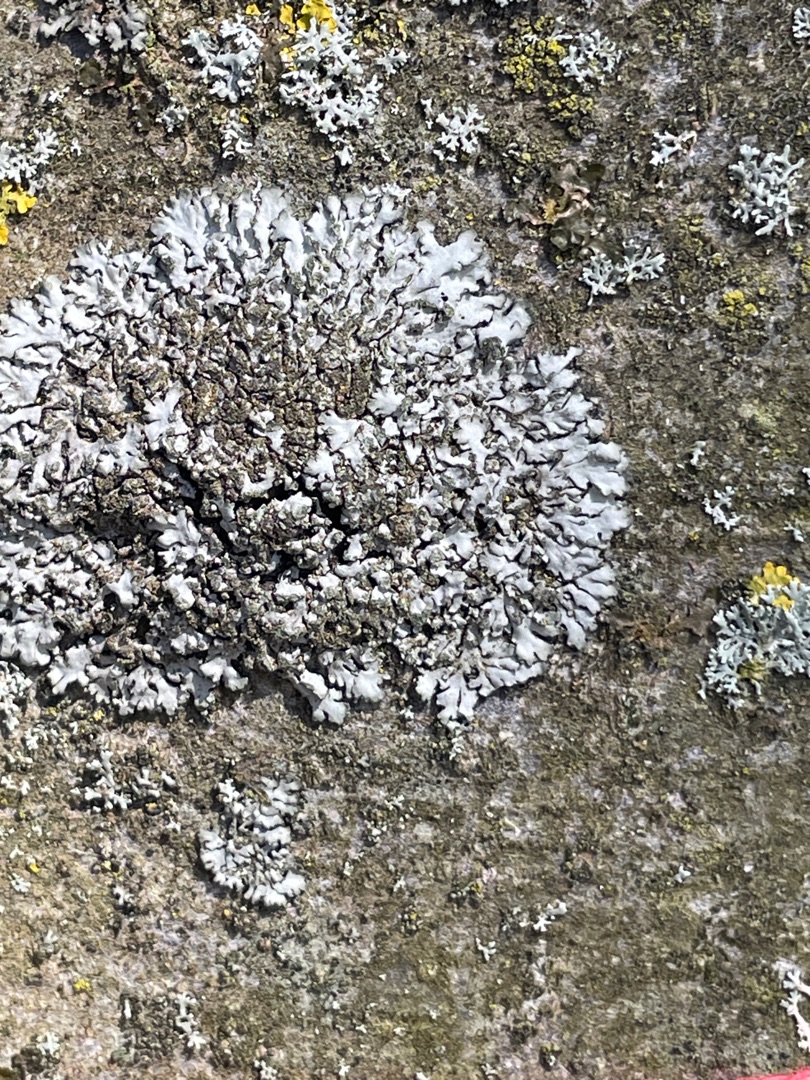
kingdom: Fungi
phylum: Ascomycota
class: Lecanoromycetes
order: Caliciales
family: Physciaceae
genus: Phaeophyscia
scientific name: Phaeophyscia orbicularis
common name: Grågrøn rosetlav
